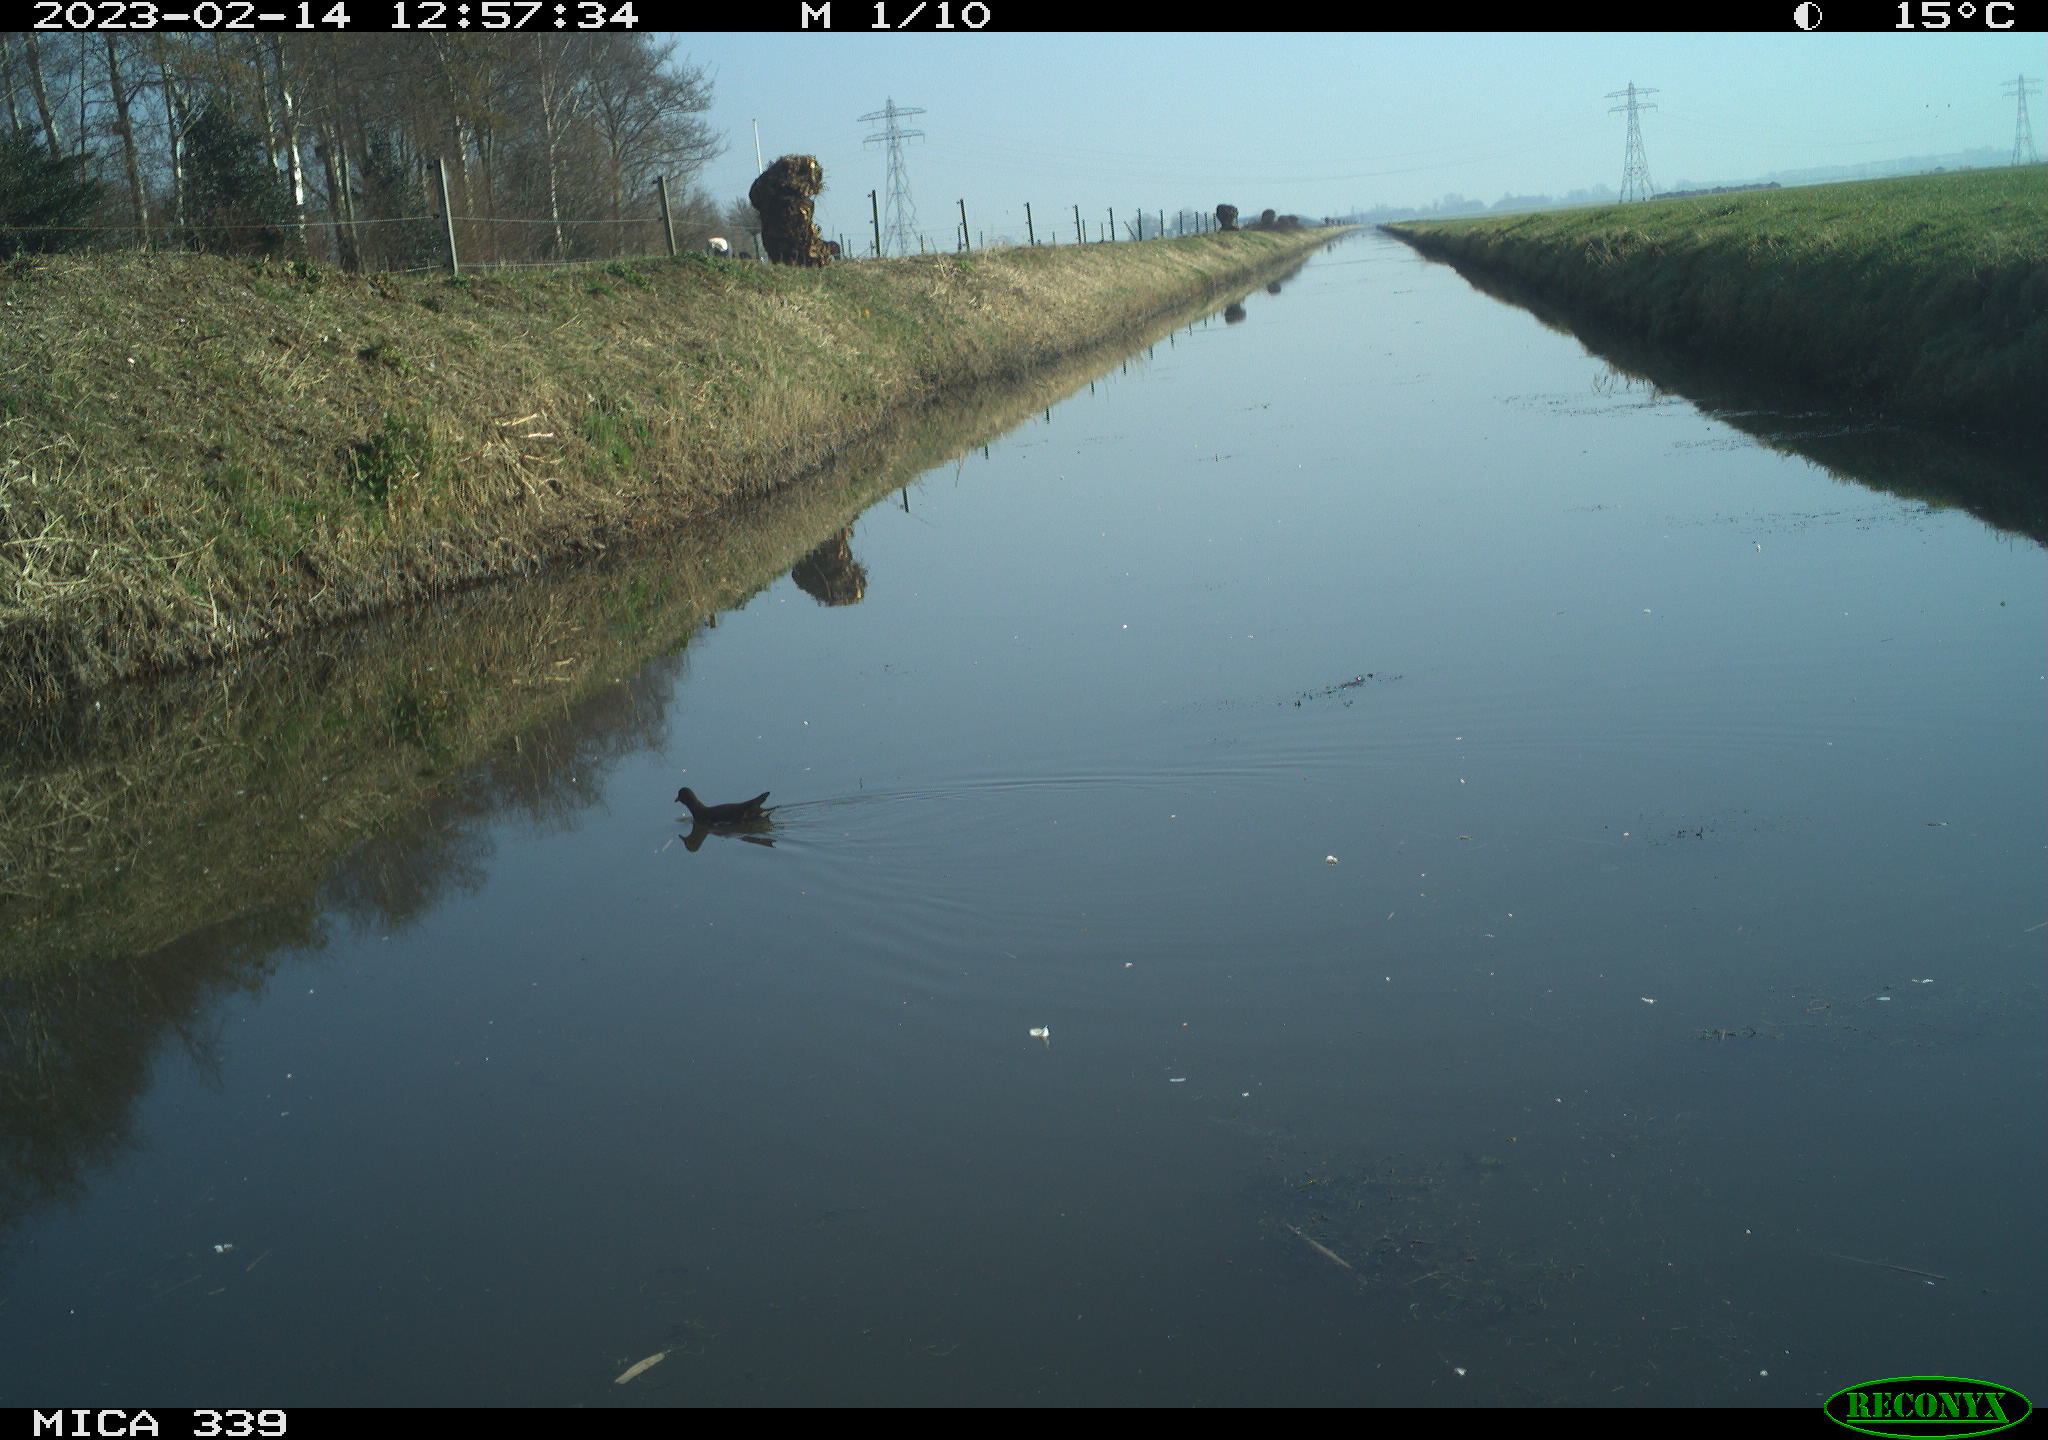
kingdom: Animalia
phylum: Chordata
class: Aves
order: Gruiformes
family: Rallidae
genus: Gallinula
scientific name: Gallinula chloropus
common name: Common moorhen
